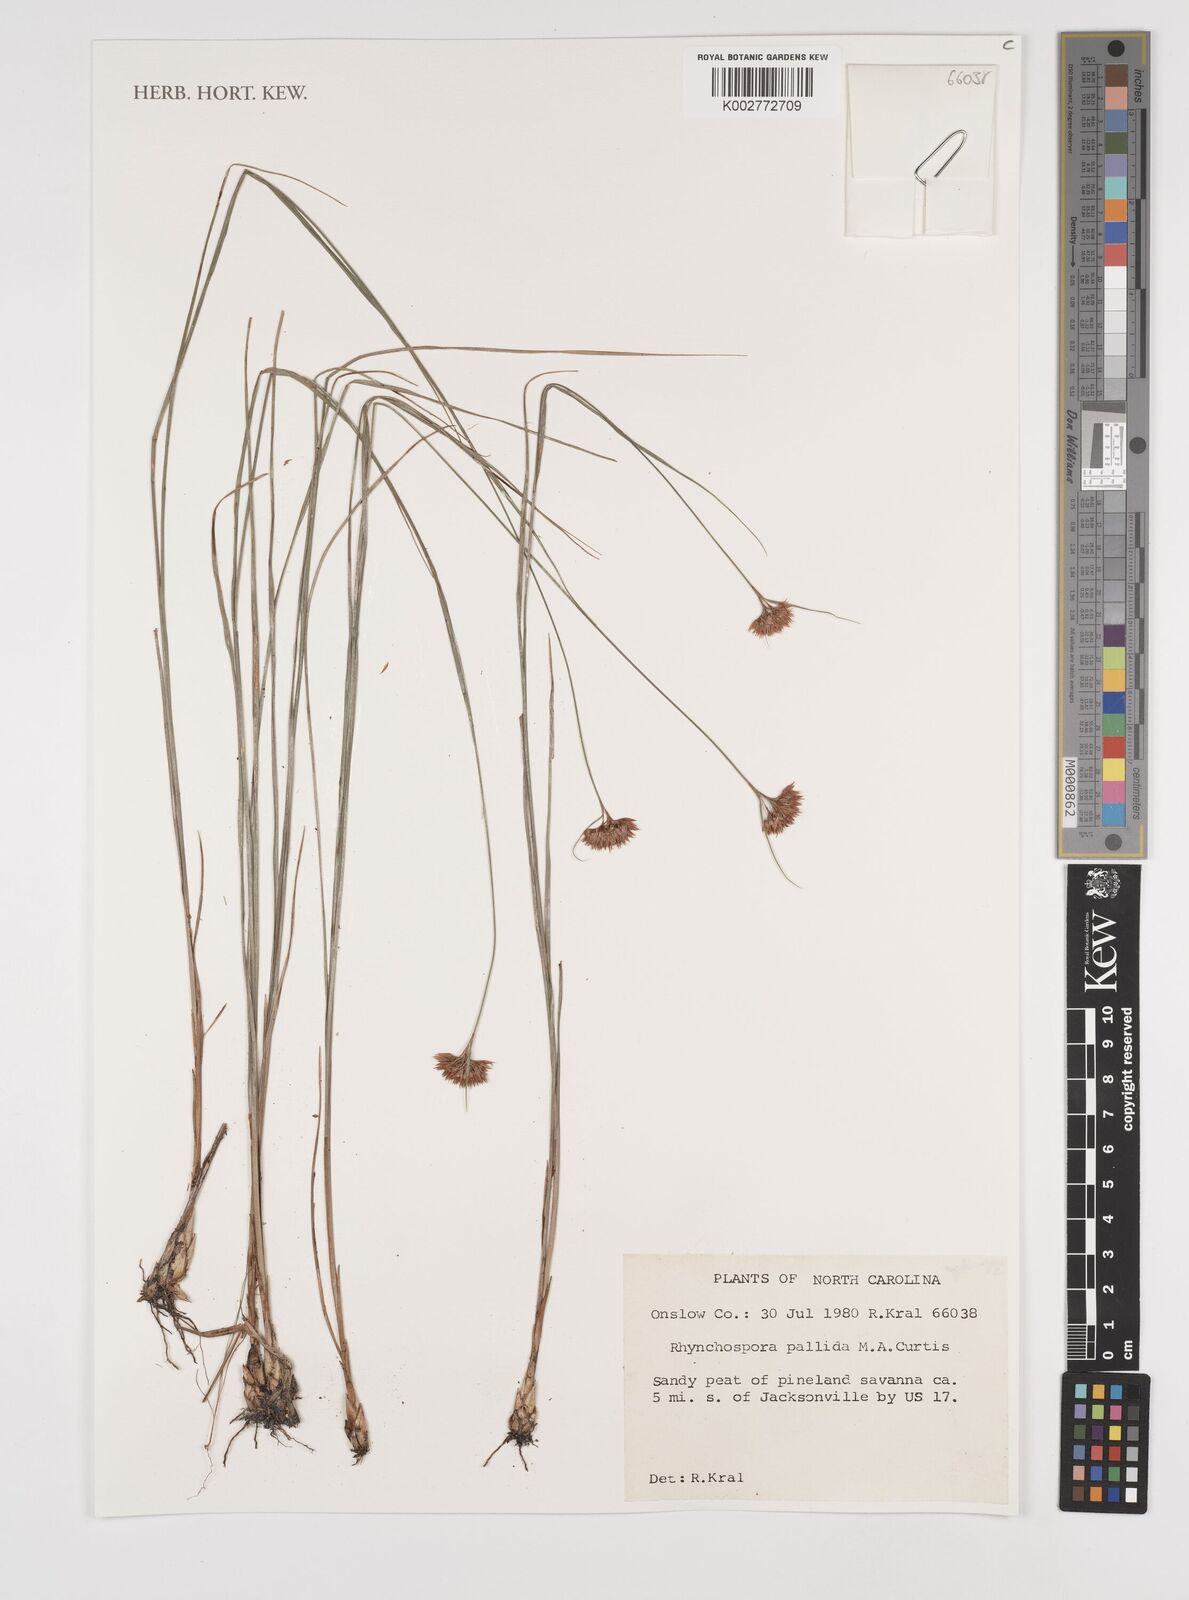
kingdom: Plantae
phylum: Tracheophyta
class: Liliopsida
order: Poales
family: Cyperaceae
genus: Rhynchospora
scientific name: Rhynchospora pallida
